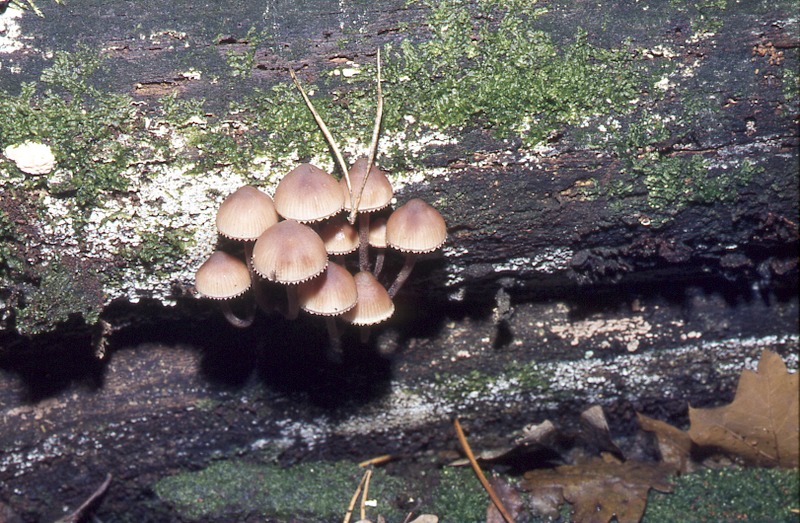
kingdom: Fungi
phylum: Basidiomycota
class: Agaricomycetes
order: Agaricales
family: Mycenaceae
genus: Mycena
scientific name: Mycena haematopus
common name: Burgundydrop bonnet
